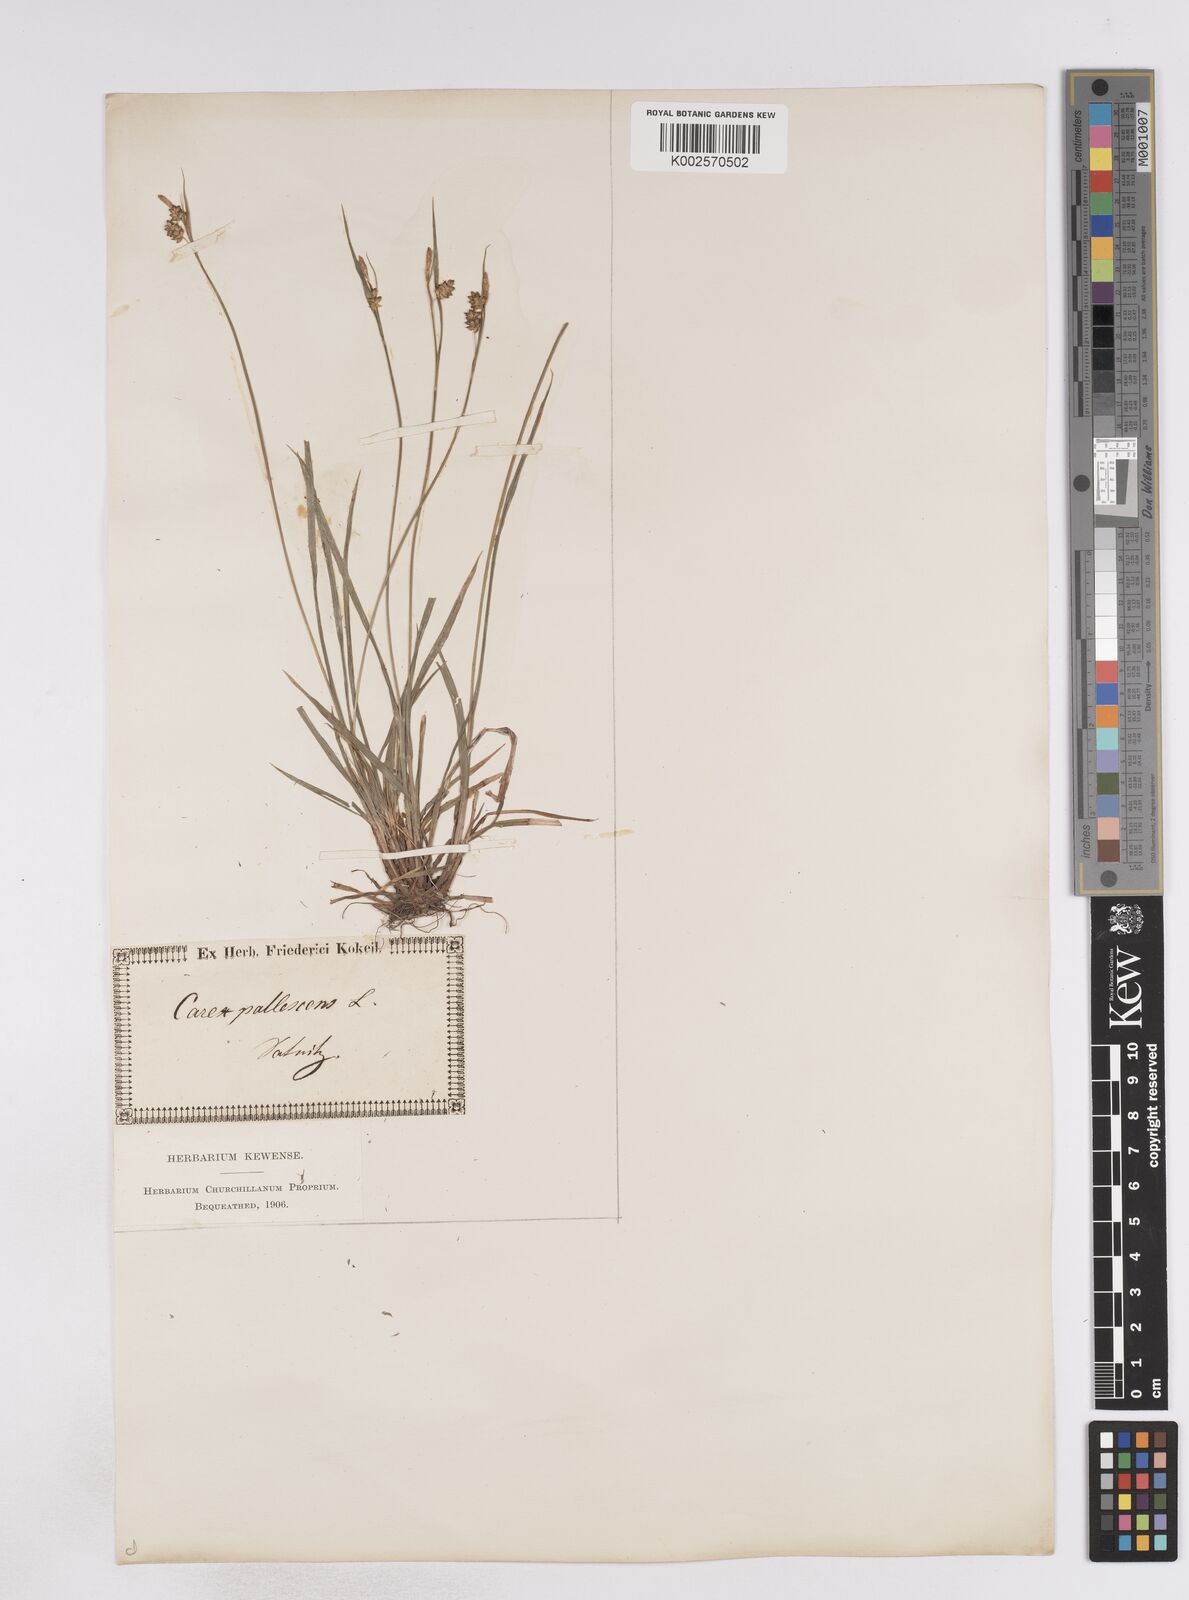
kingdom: Plantae
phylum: Tracheophyta
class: Liliopsida
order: Poales
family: Cyperaceae
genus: Carex
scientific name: Carex pallescens
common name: Pale sedge
